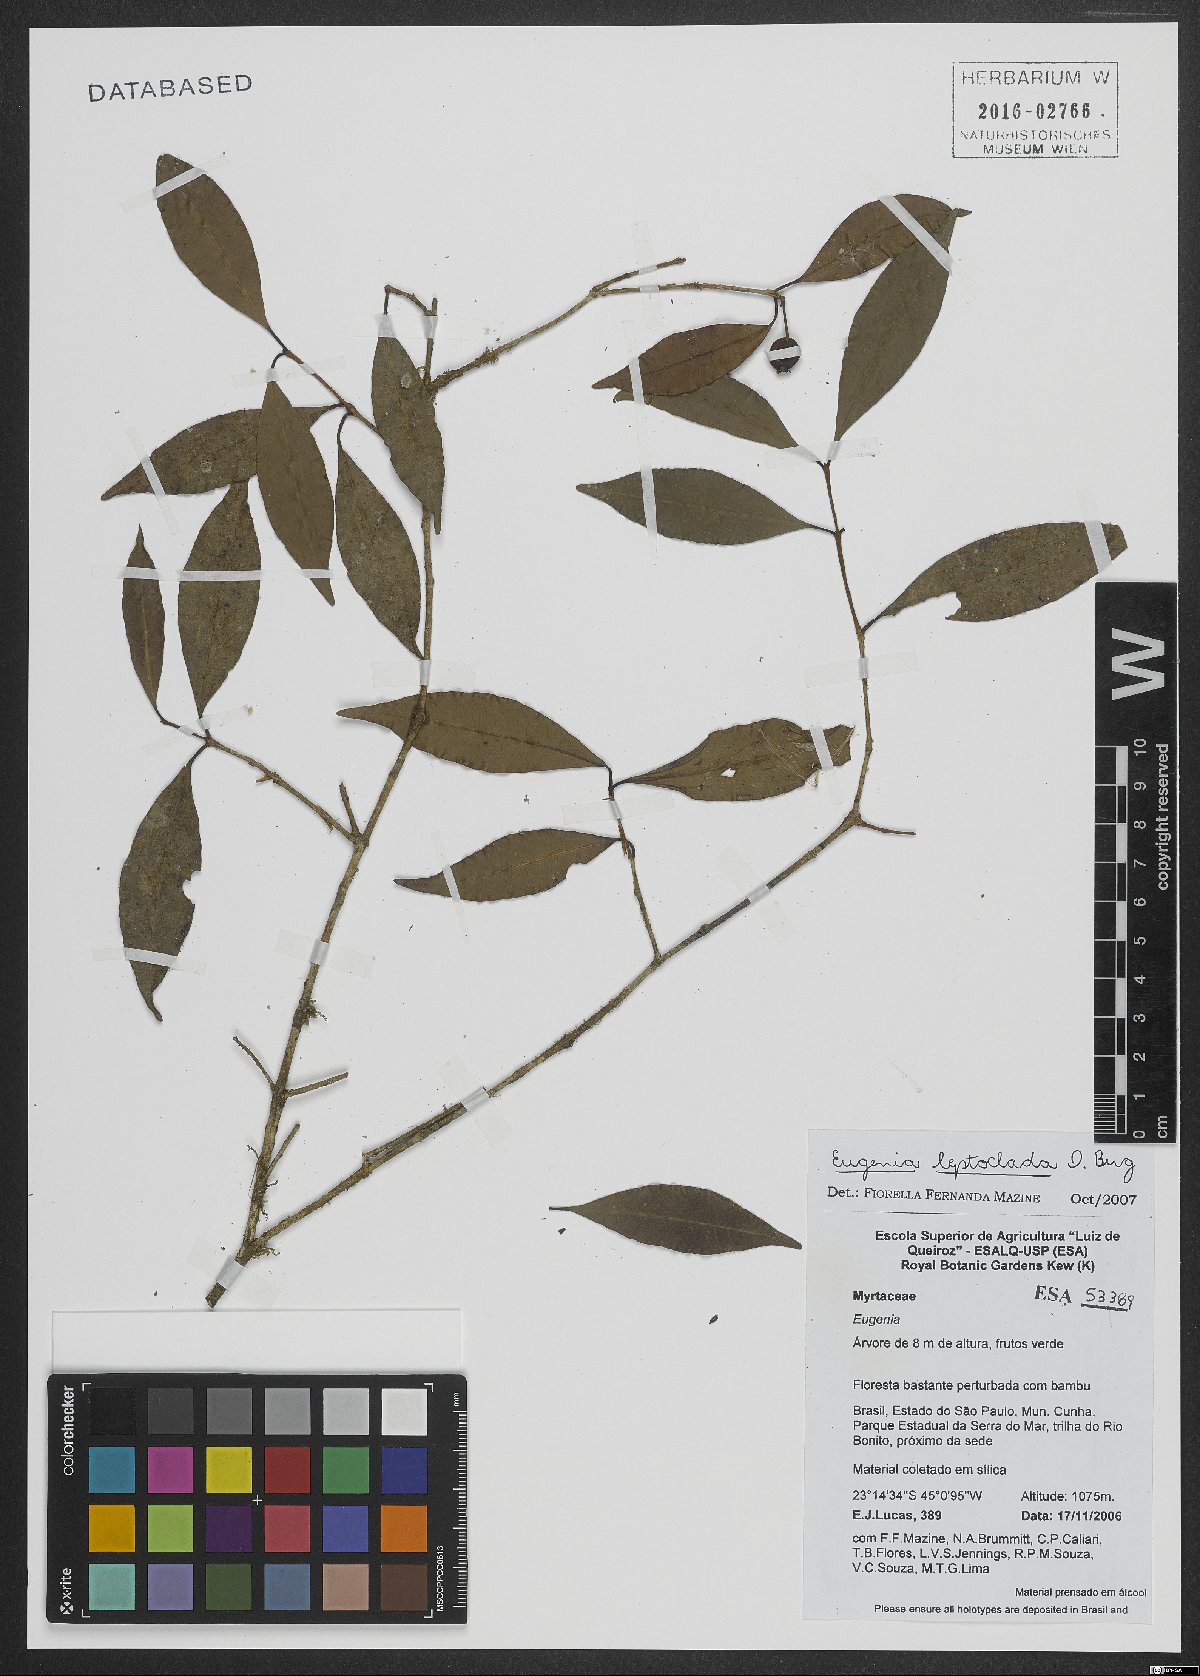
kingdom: Plantae
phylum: Tracheophyta
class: Magnoliopsida
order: Myrtales
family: Myrtaceae
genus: Eugenia
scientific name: Eugenia leptoclada
